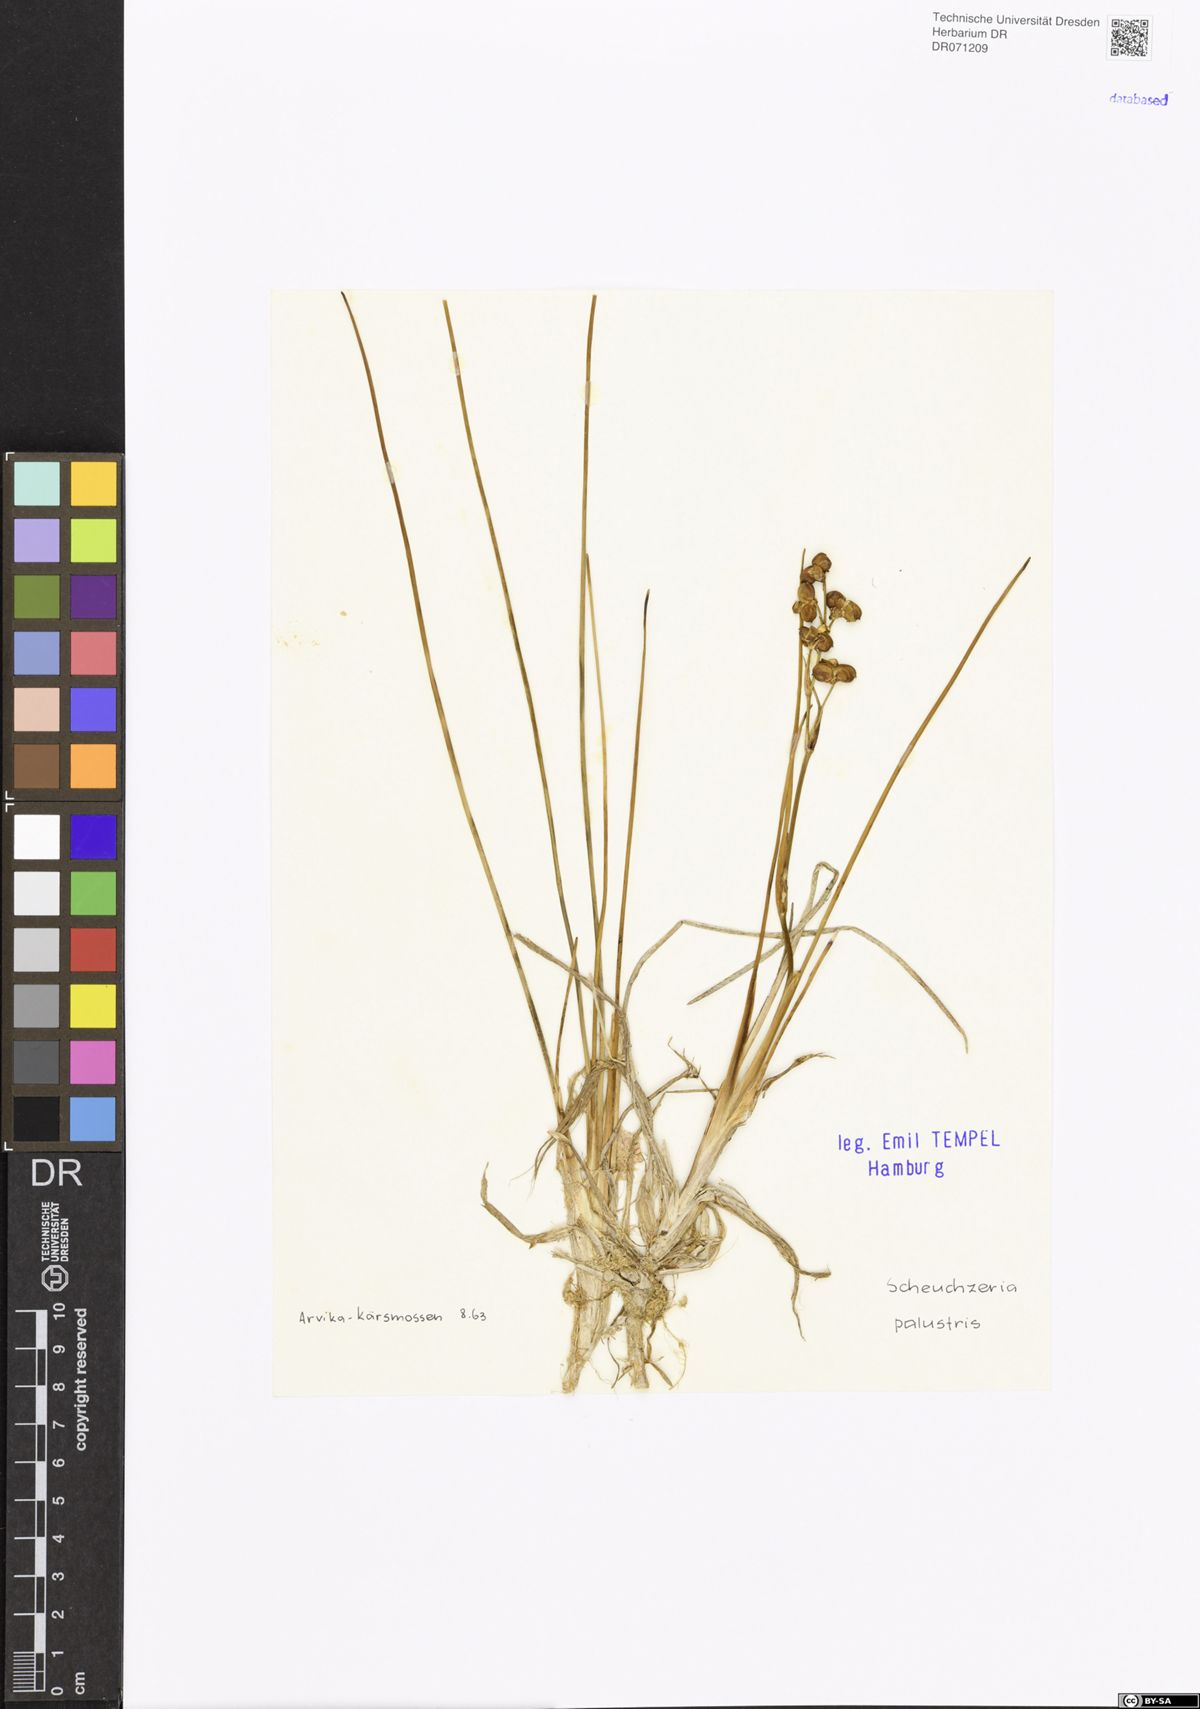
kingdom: Plantae
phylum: Tracheophyta
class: Liliopsida
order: Alismatales
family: Scheuchzeriaceae
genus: Scheuchzeria
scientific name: Scheuchzeria palustris
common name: Rannoch-rush
